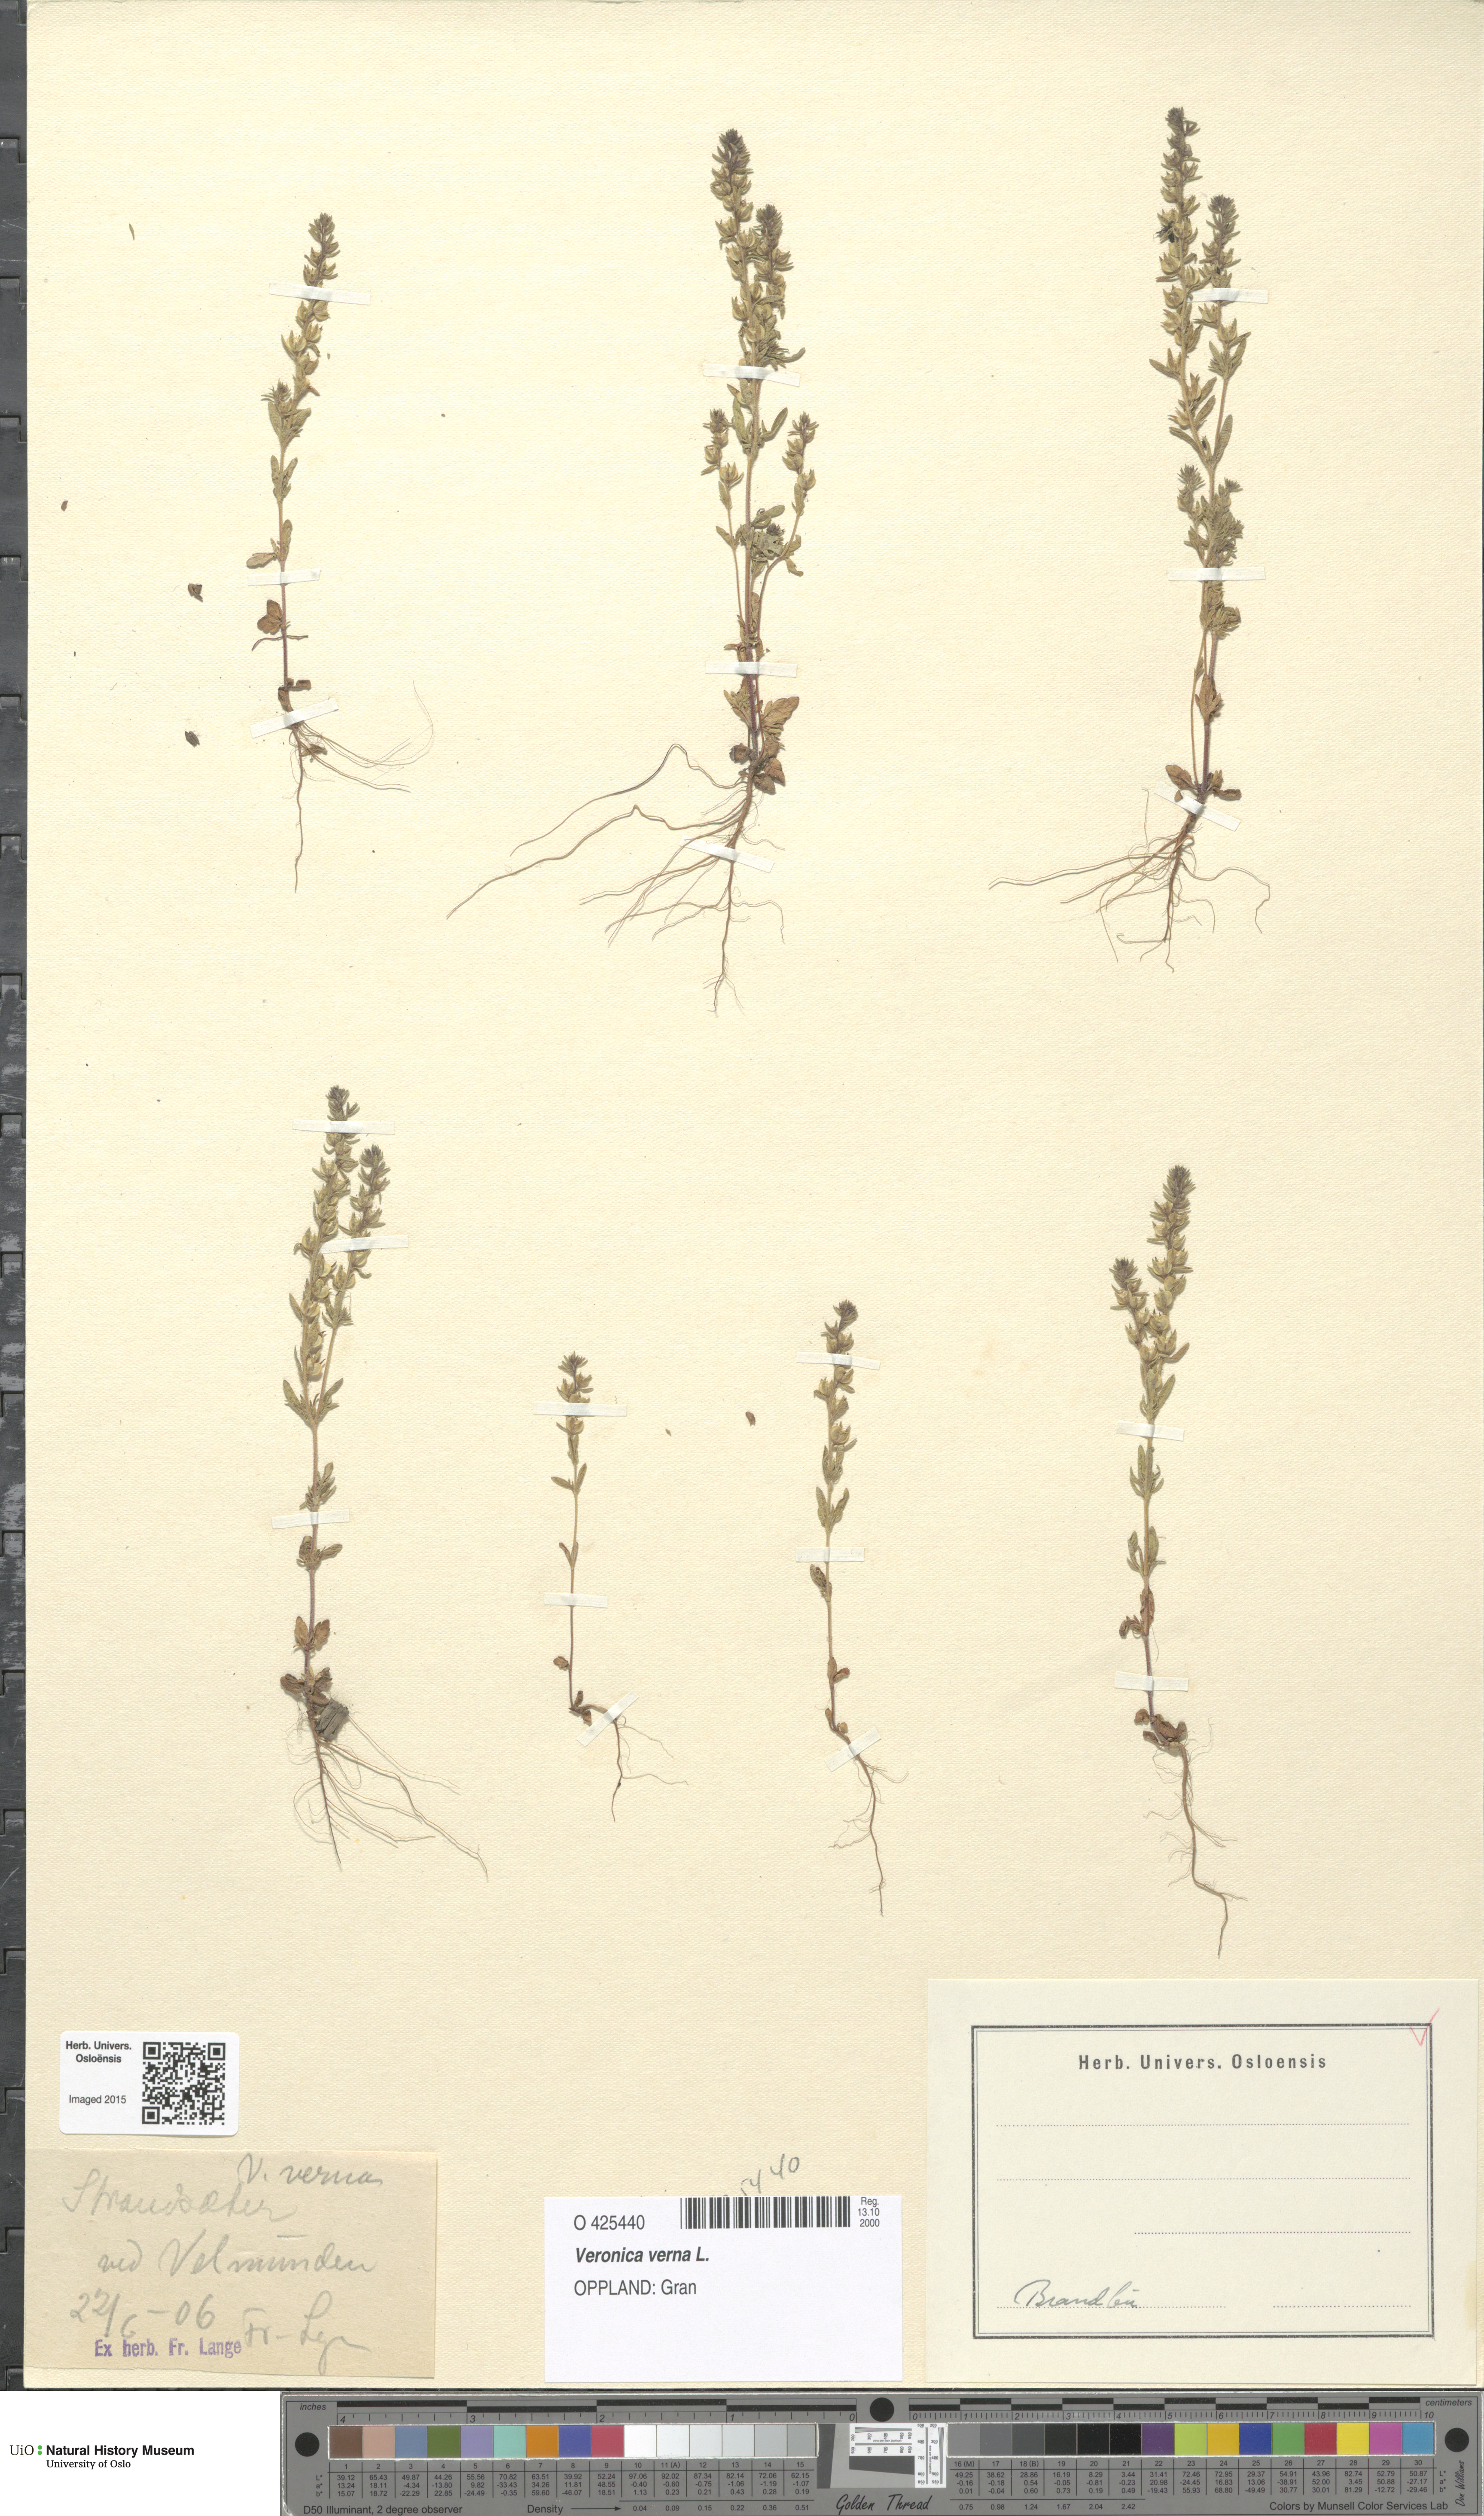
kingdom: Plantae
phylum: Tracheophyta
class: Magnoliopsida
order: Lamiales
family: Plantaginaceae
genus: Veronica
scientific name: Veronica verna
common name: Spring speedwell
